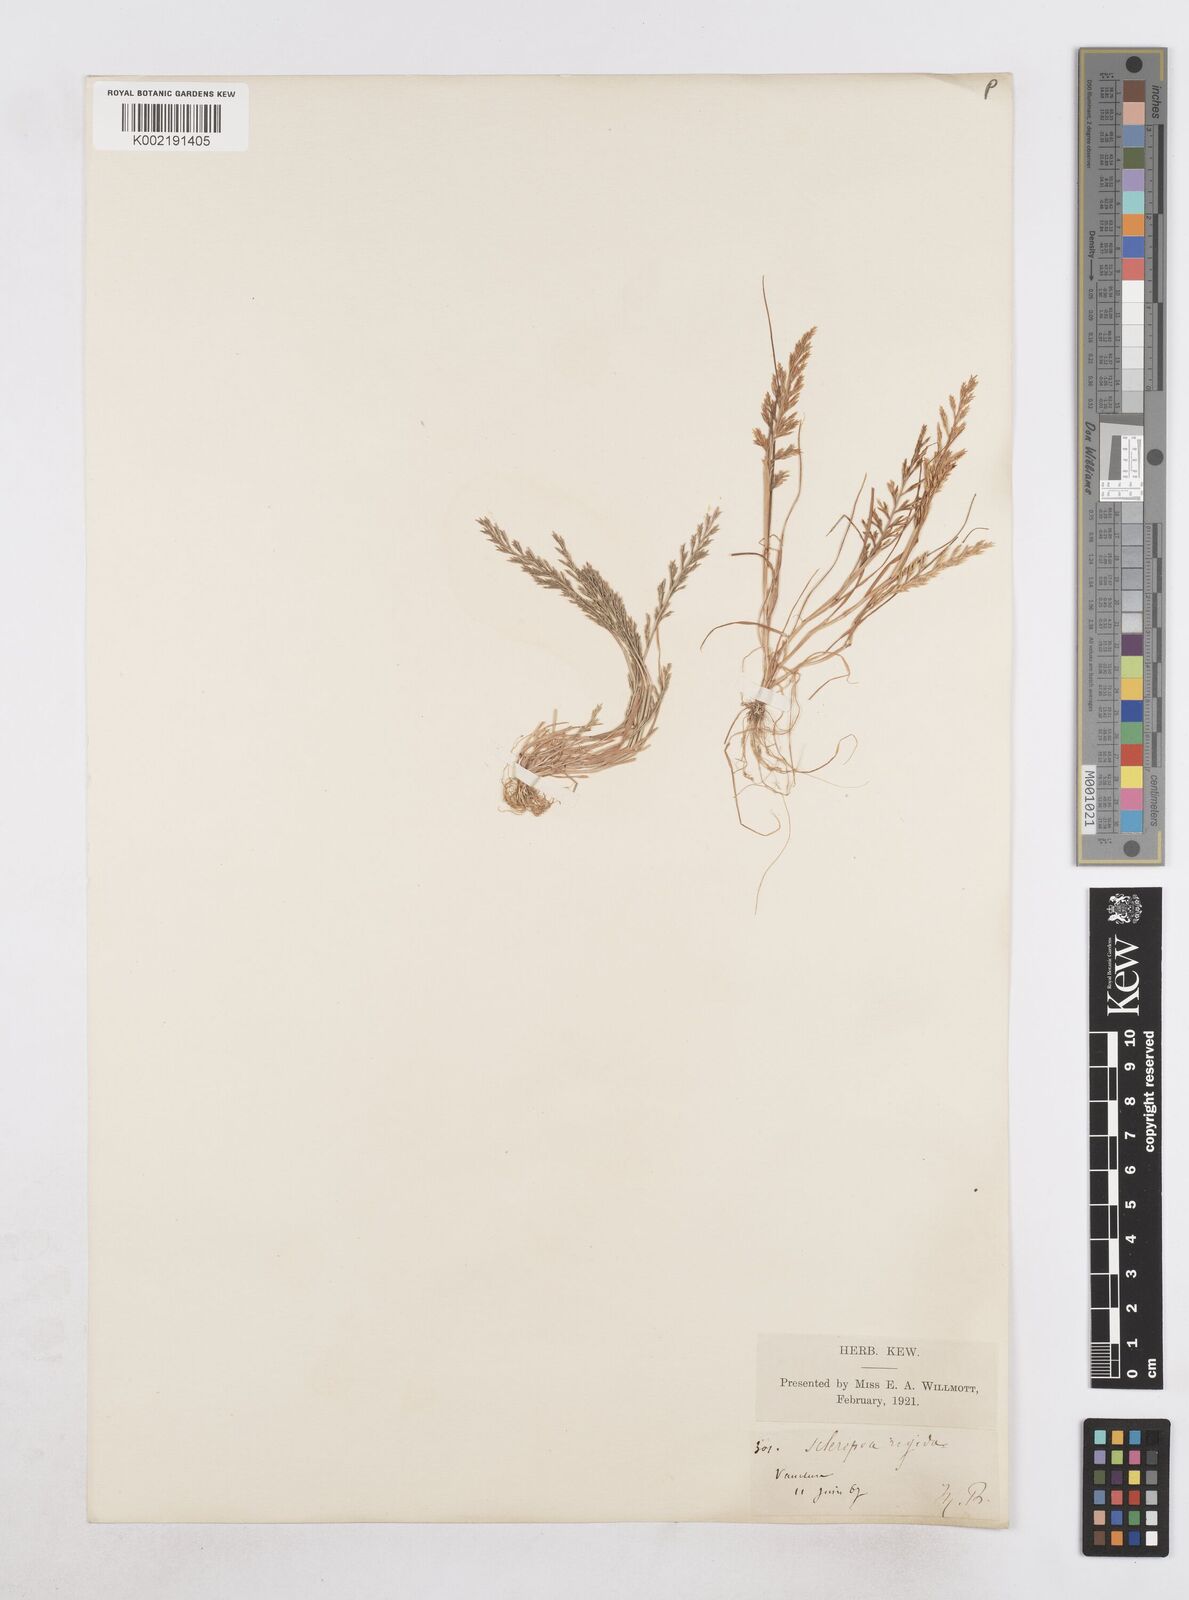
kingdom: Plantae
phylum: Tracheophyta
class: Liliopsida
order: Poales
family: Poaceae
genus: Catapodium
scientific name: Catapodium rigidum
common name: Fern-grass
